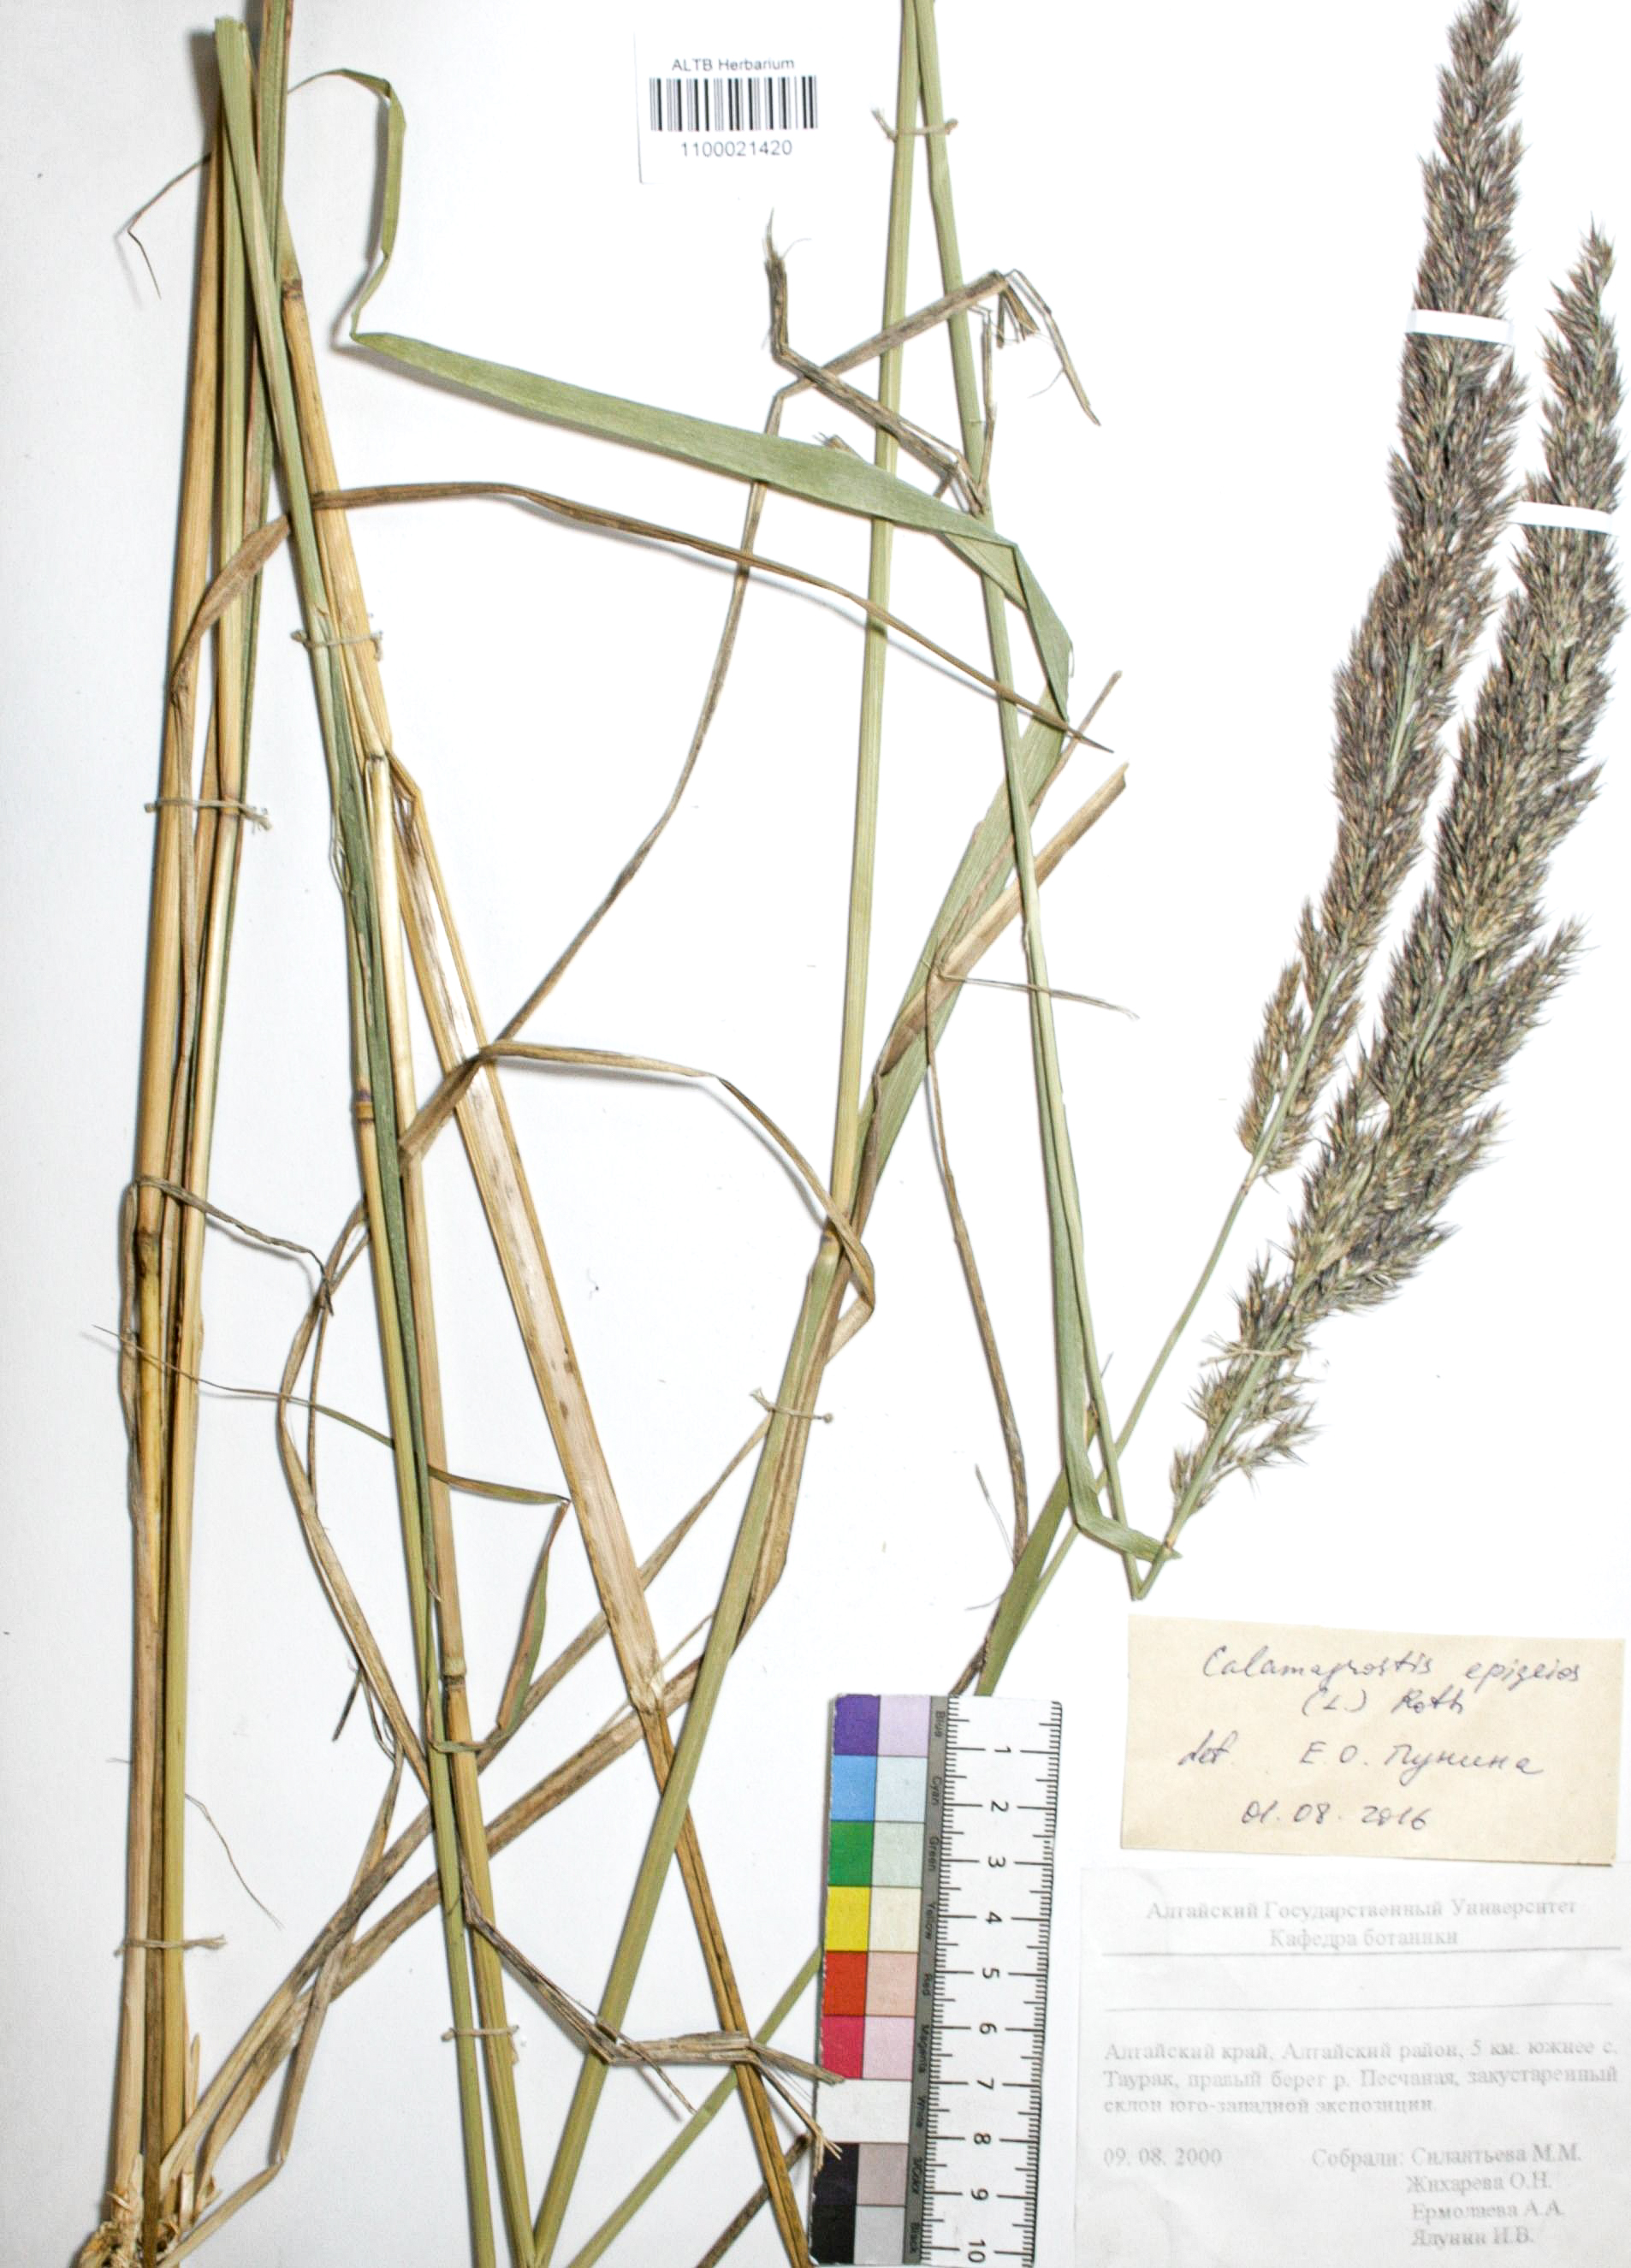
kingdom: Plantae
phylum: Tracheophyta
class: Liliopsida
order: Poales
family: Poaceae
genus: Calamagrostis
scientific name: Calamagrostis epigejos
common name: Wood small-reed
